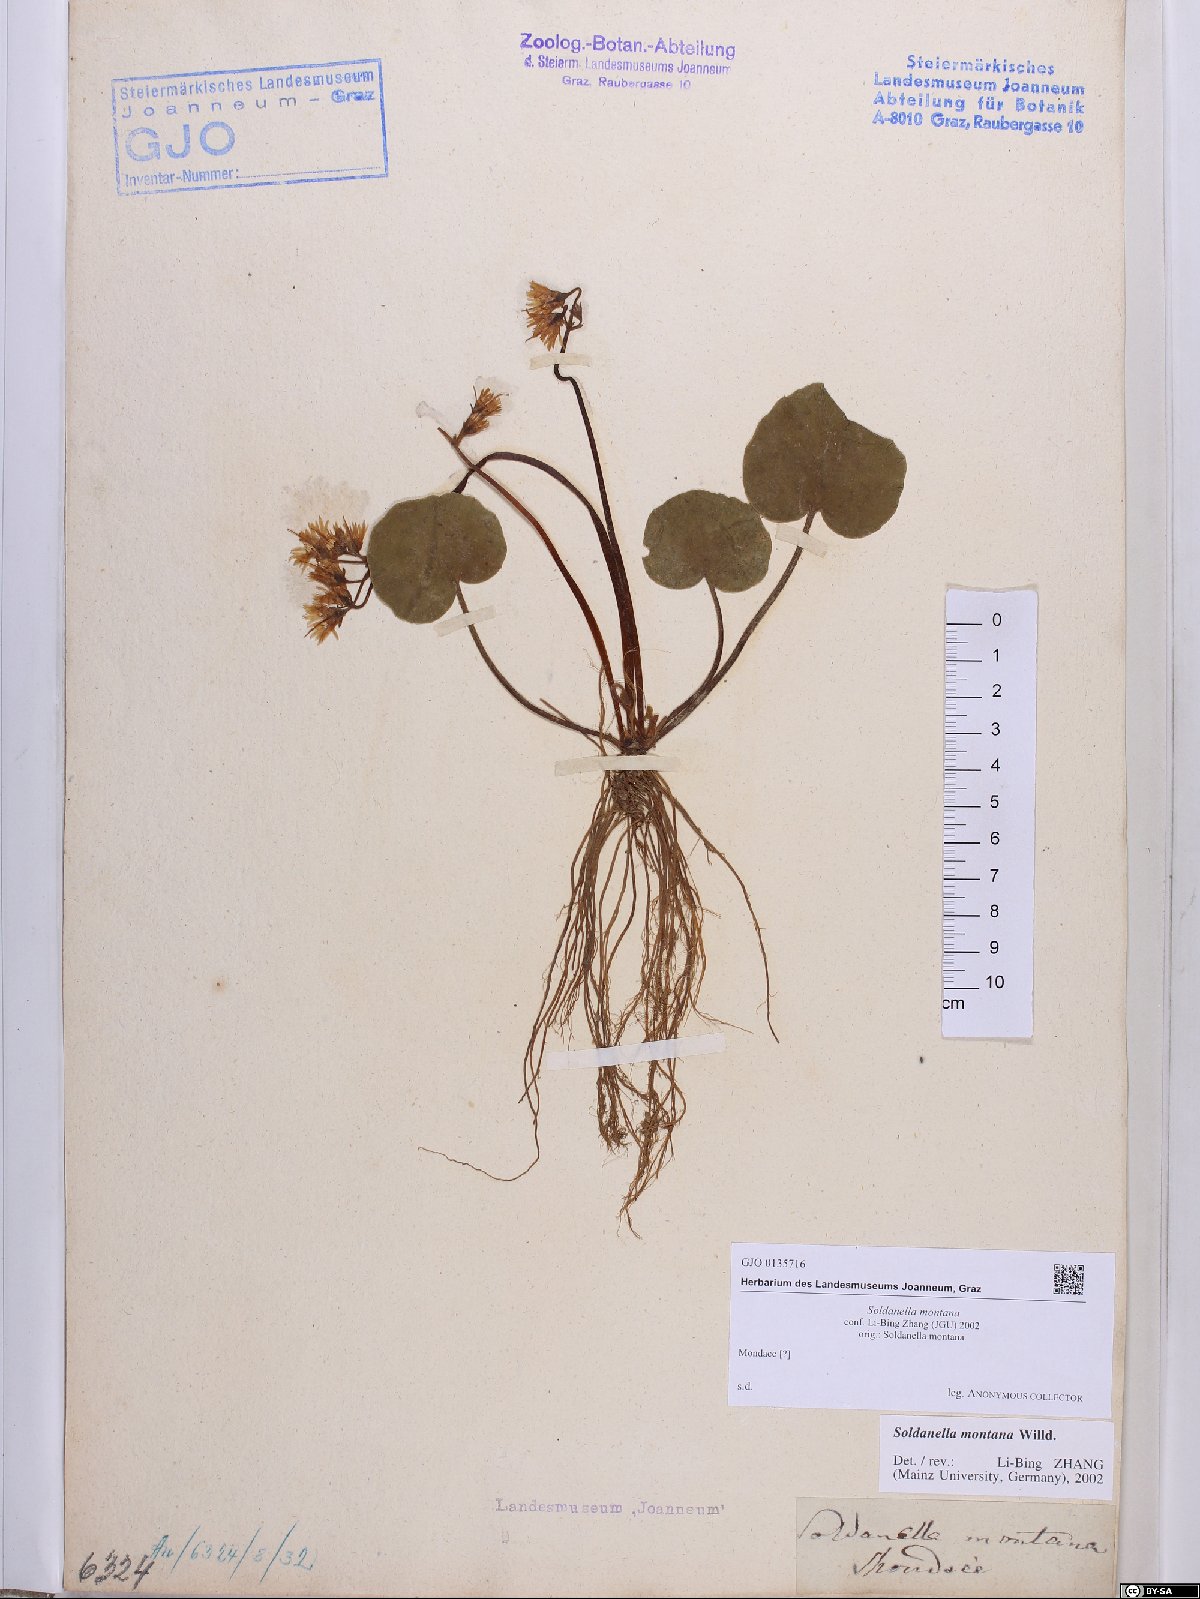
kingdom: Plantae
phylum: Tracheophyta
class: Magnoliopsida
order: Ericales
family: Primulaceae
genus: Soldanella
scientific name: Soldanella montana
